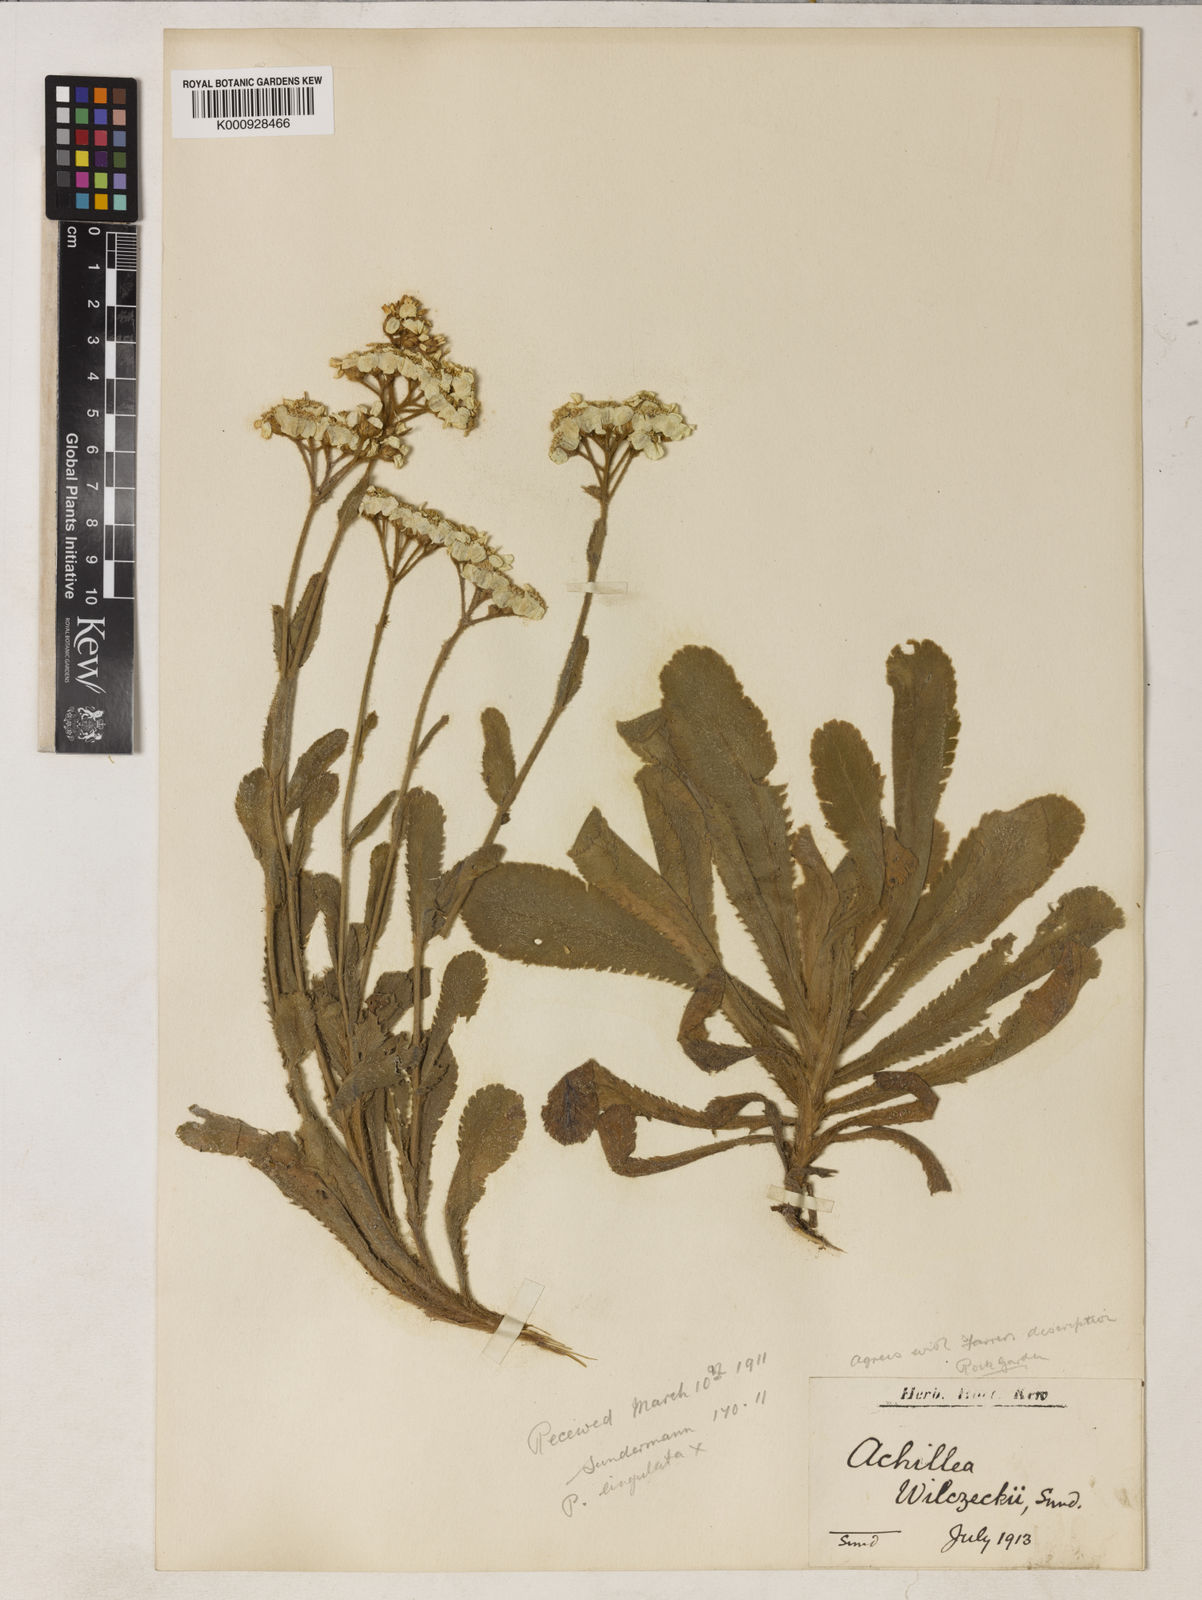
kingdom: Plantae
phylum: Tracheophyta
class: Magnoliopsida
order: Asterales
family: Asteraceae
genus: Achillea
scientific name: Achillea ochroleuca
